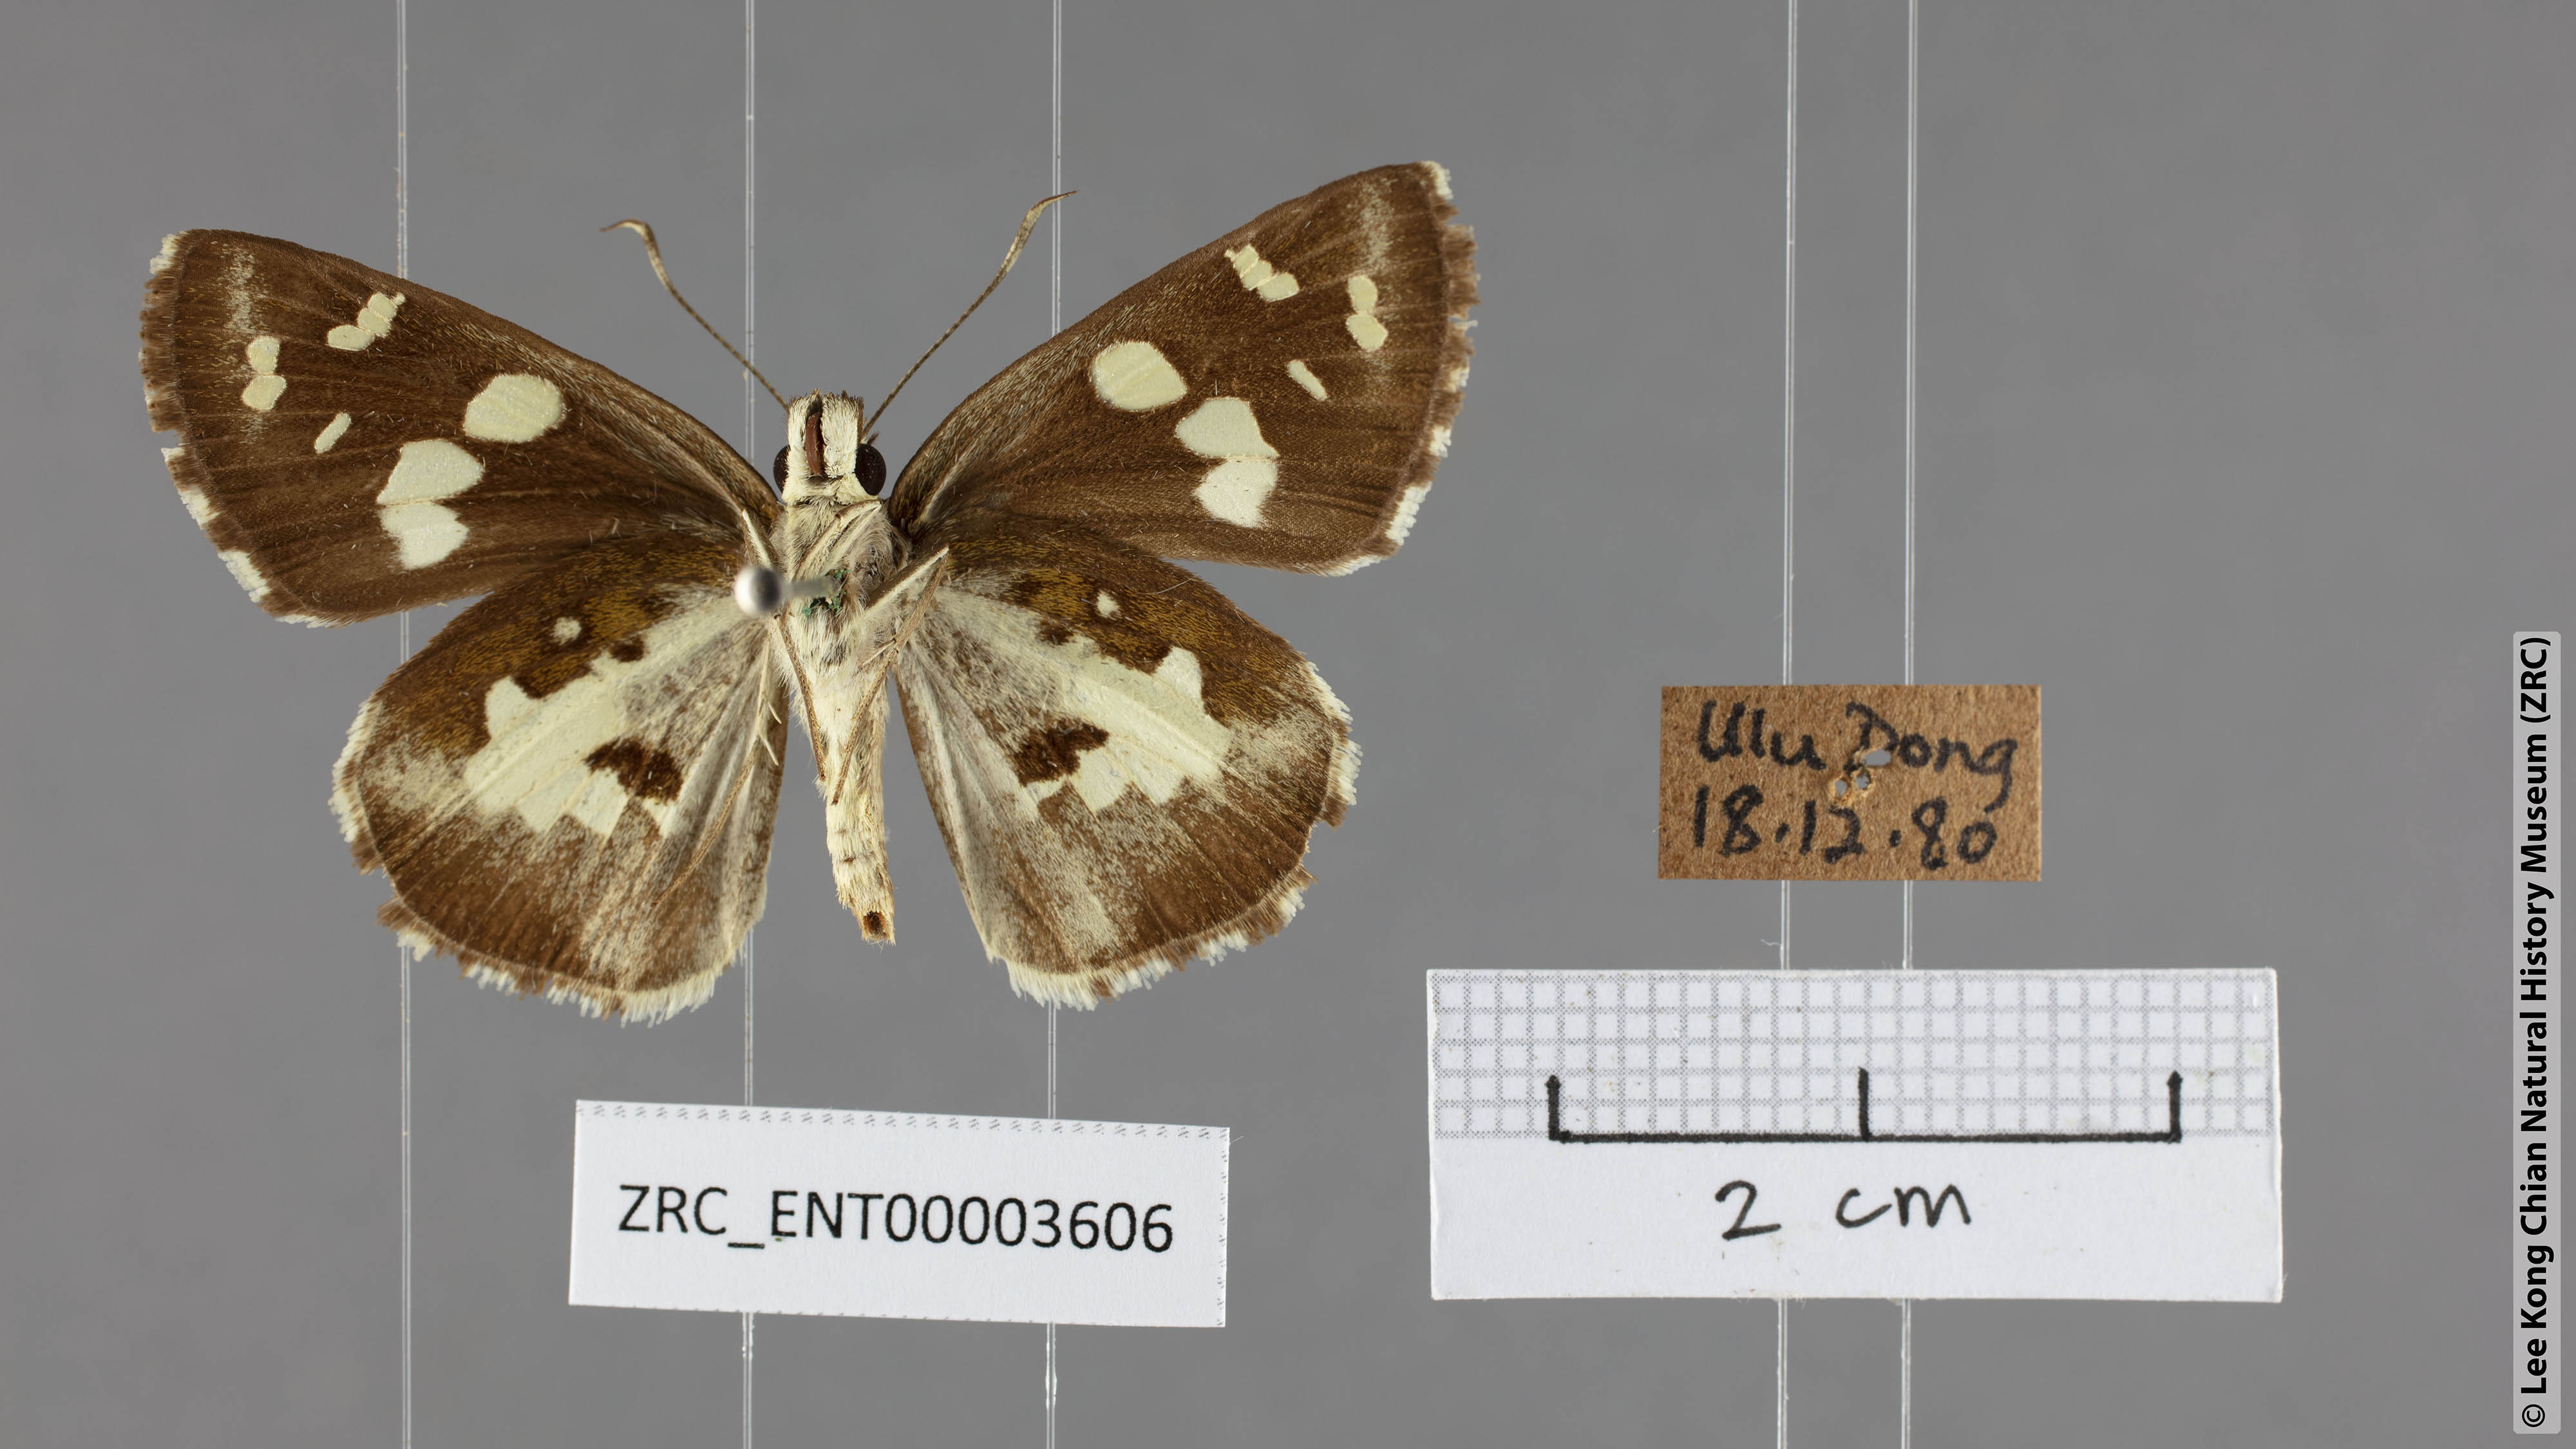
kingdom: Animalia
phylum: Arthropoda
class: Insecta
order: Lepidoptera
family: Hesperiidae
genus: Udaspes
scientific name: Udaspes folus
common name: Grass demon
